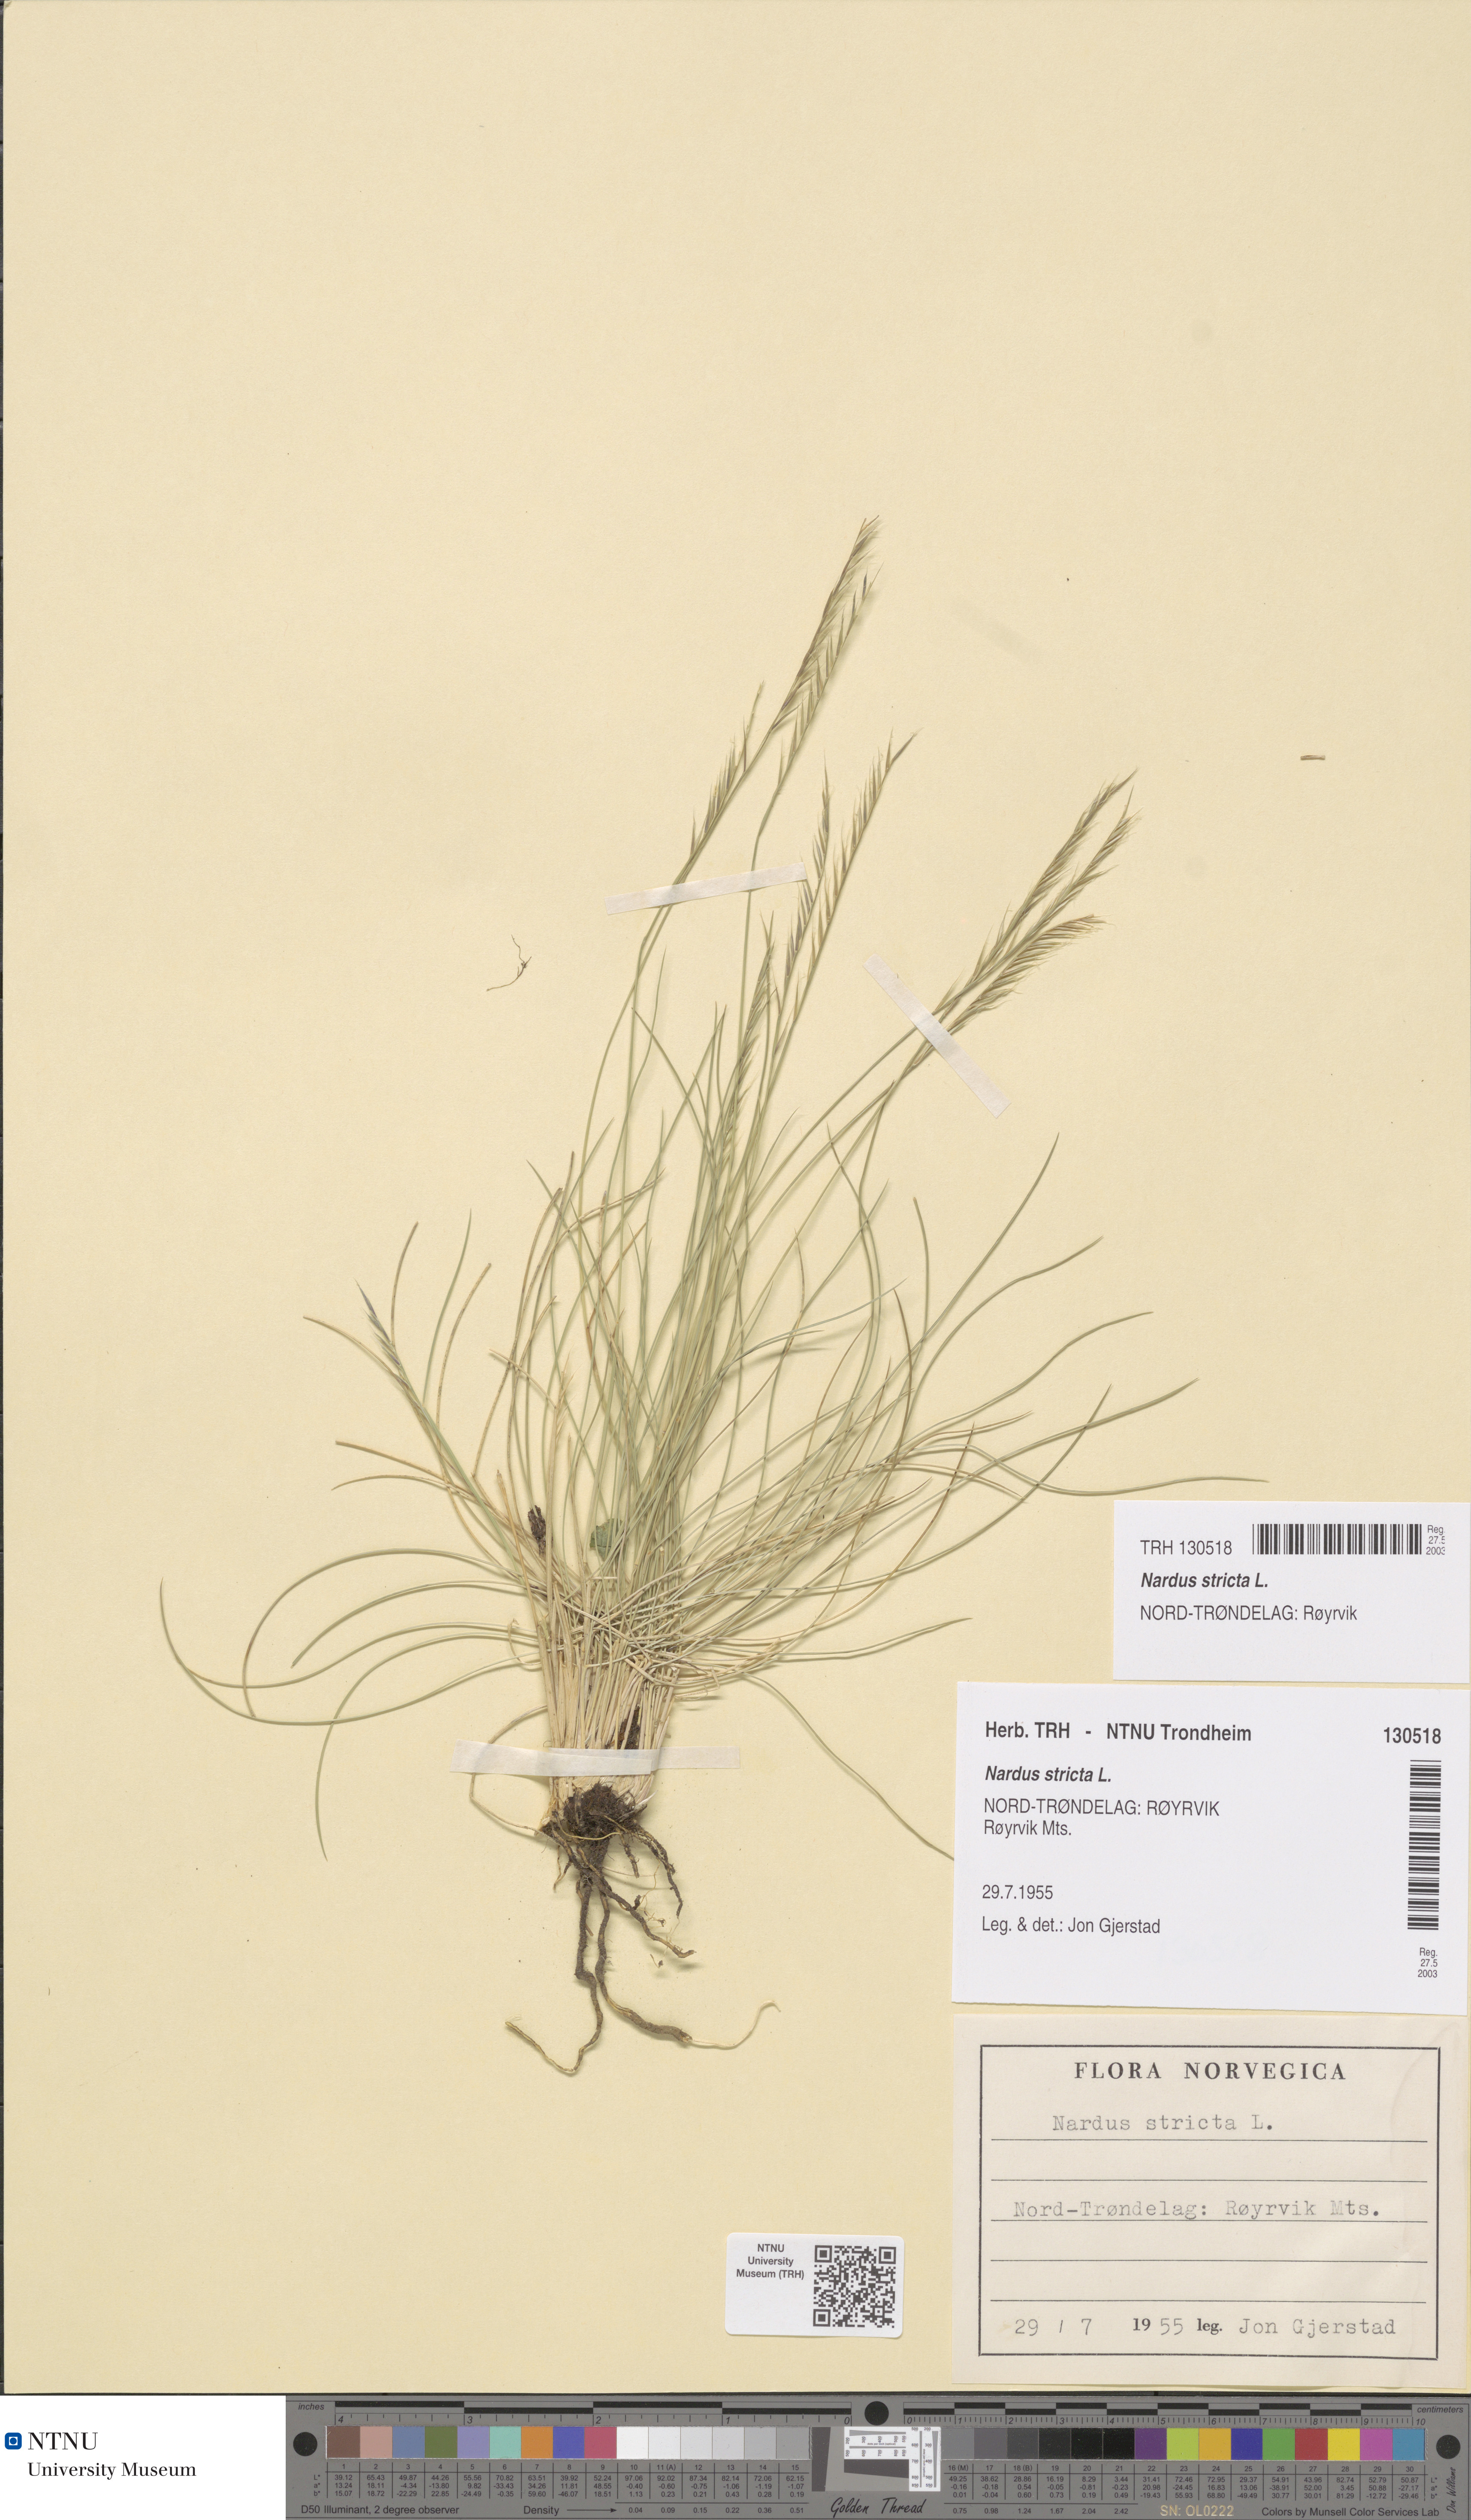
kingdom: Plantae
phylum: Tracheophyta
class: Liliopsida
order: Poales
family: Poaceae
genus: Nardus
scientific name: Nardus stricta
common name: Mat-grass
